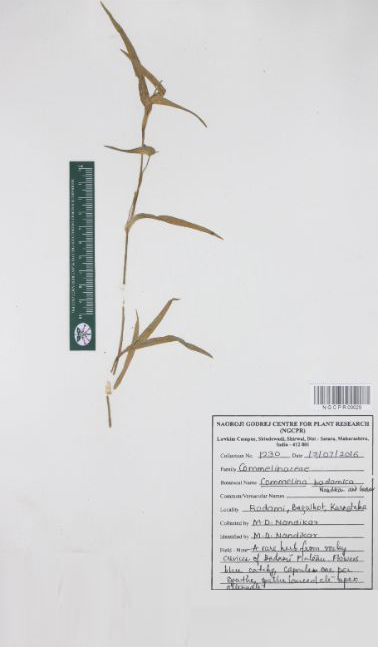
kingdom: Plantae
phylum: Tracheophyta
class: Liliopsida
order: Commelinales
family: Commelinaceae
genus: Commelina
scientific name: Commelina badamica
